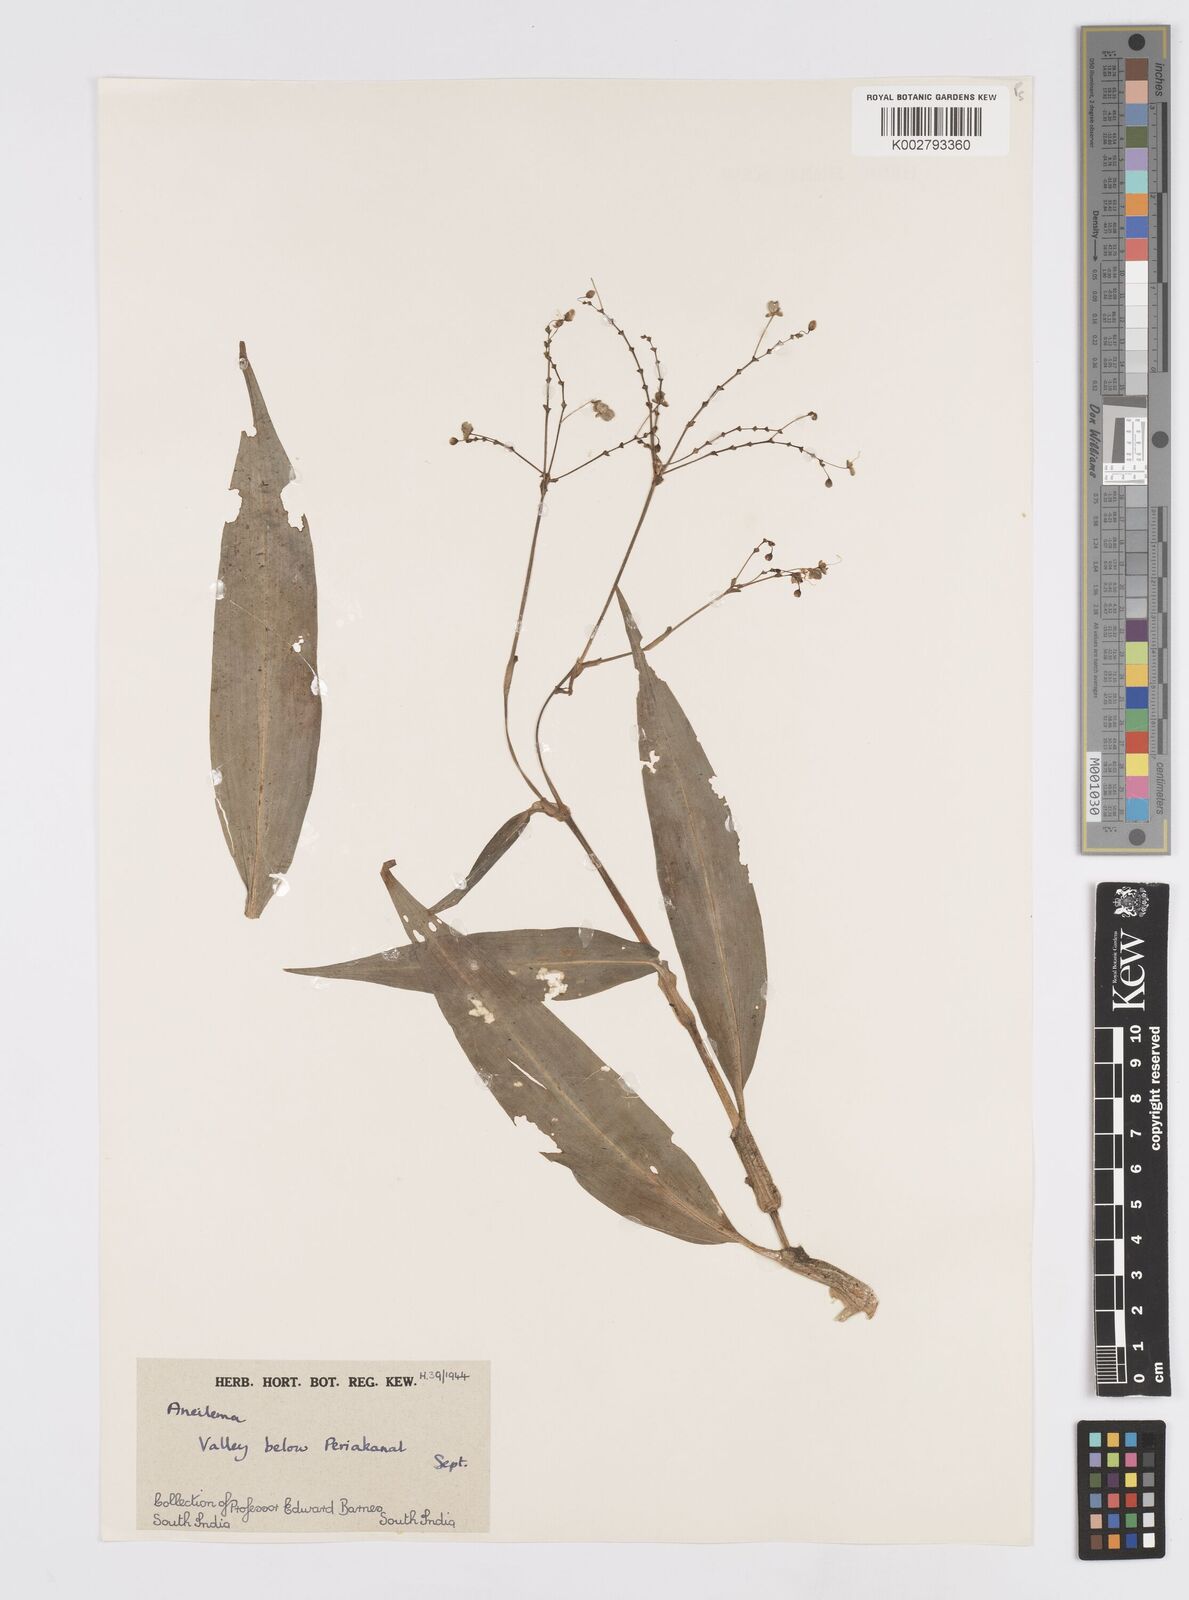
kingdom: Plantae
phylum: Tracheophyta
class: Liliopsida
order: Commelinales
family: Commelinaceae
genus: Murdannia
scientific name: Murdannia
